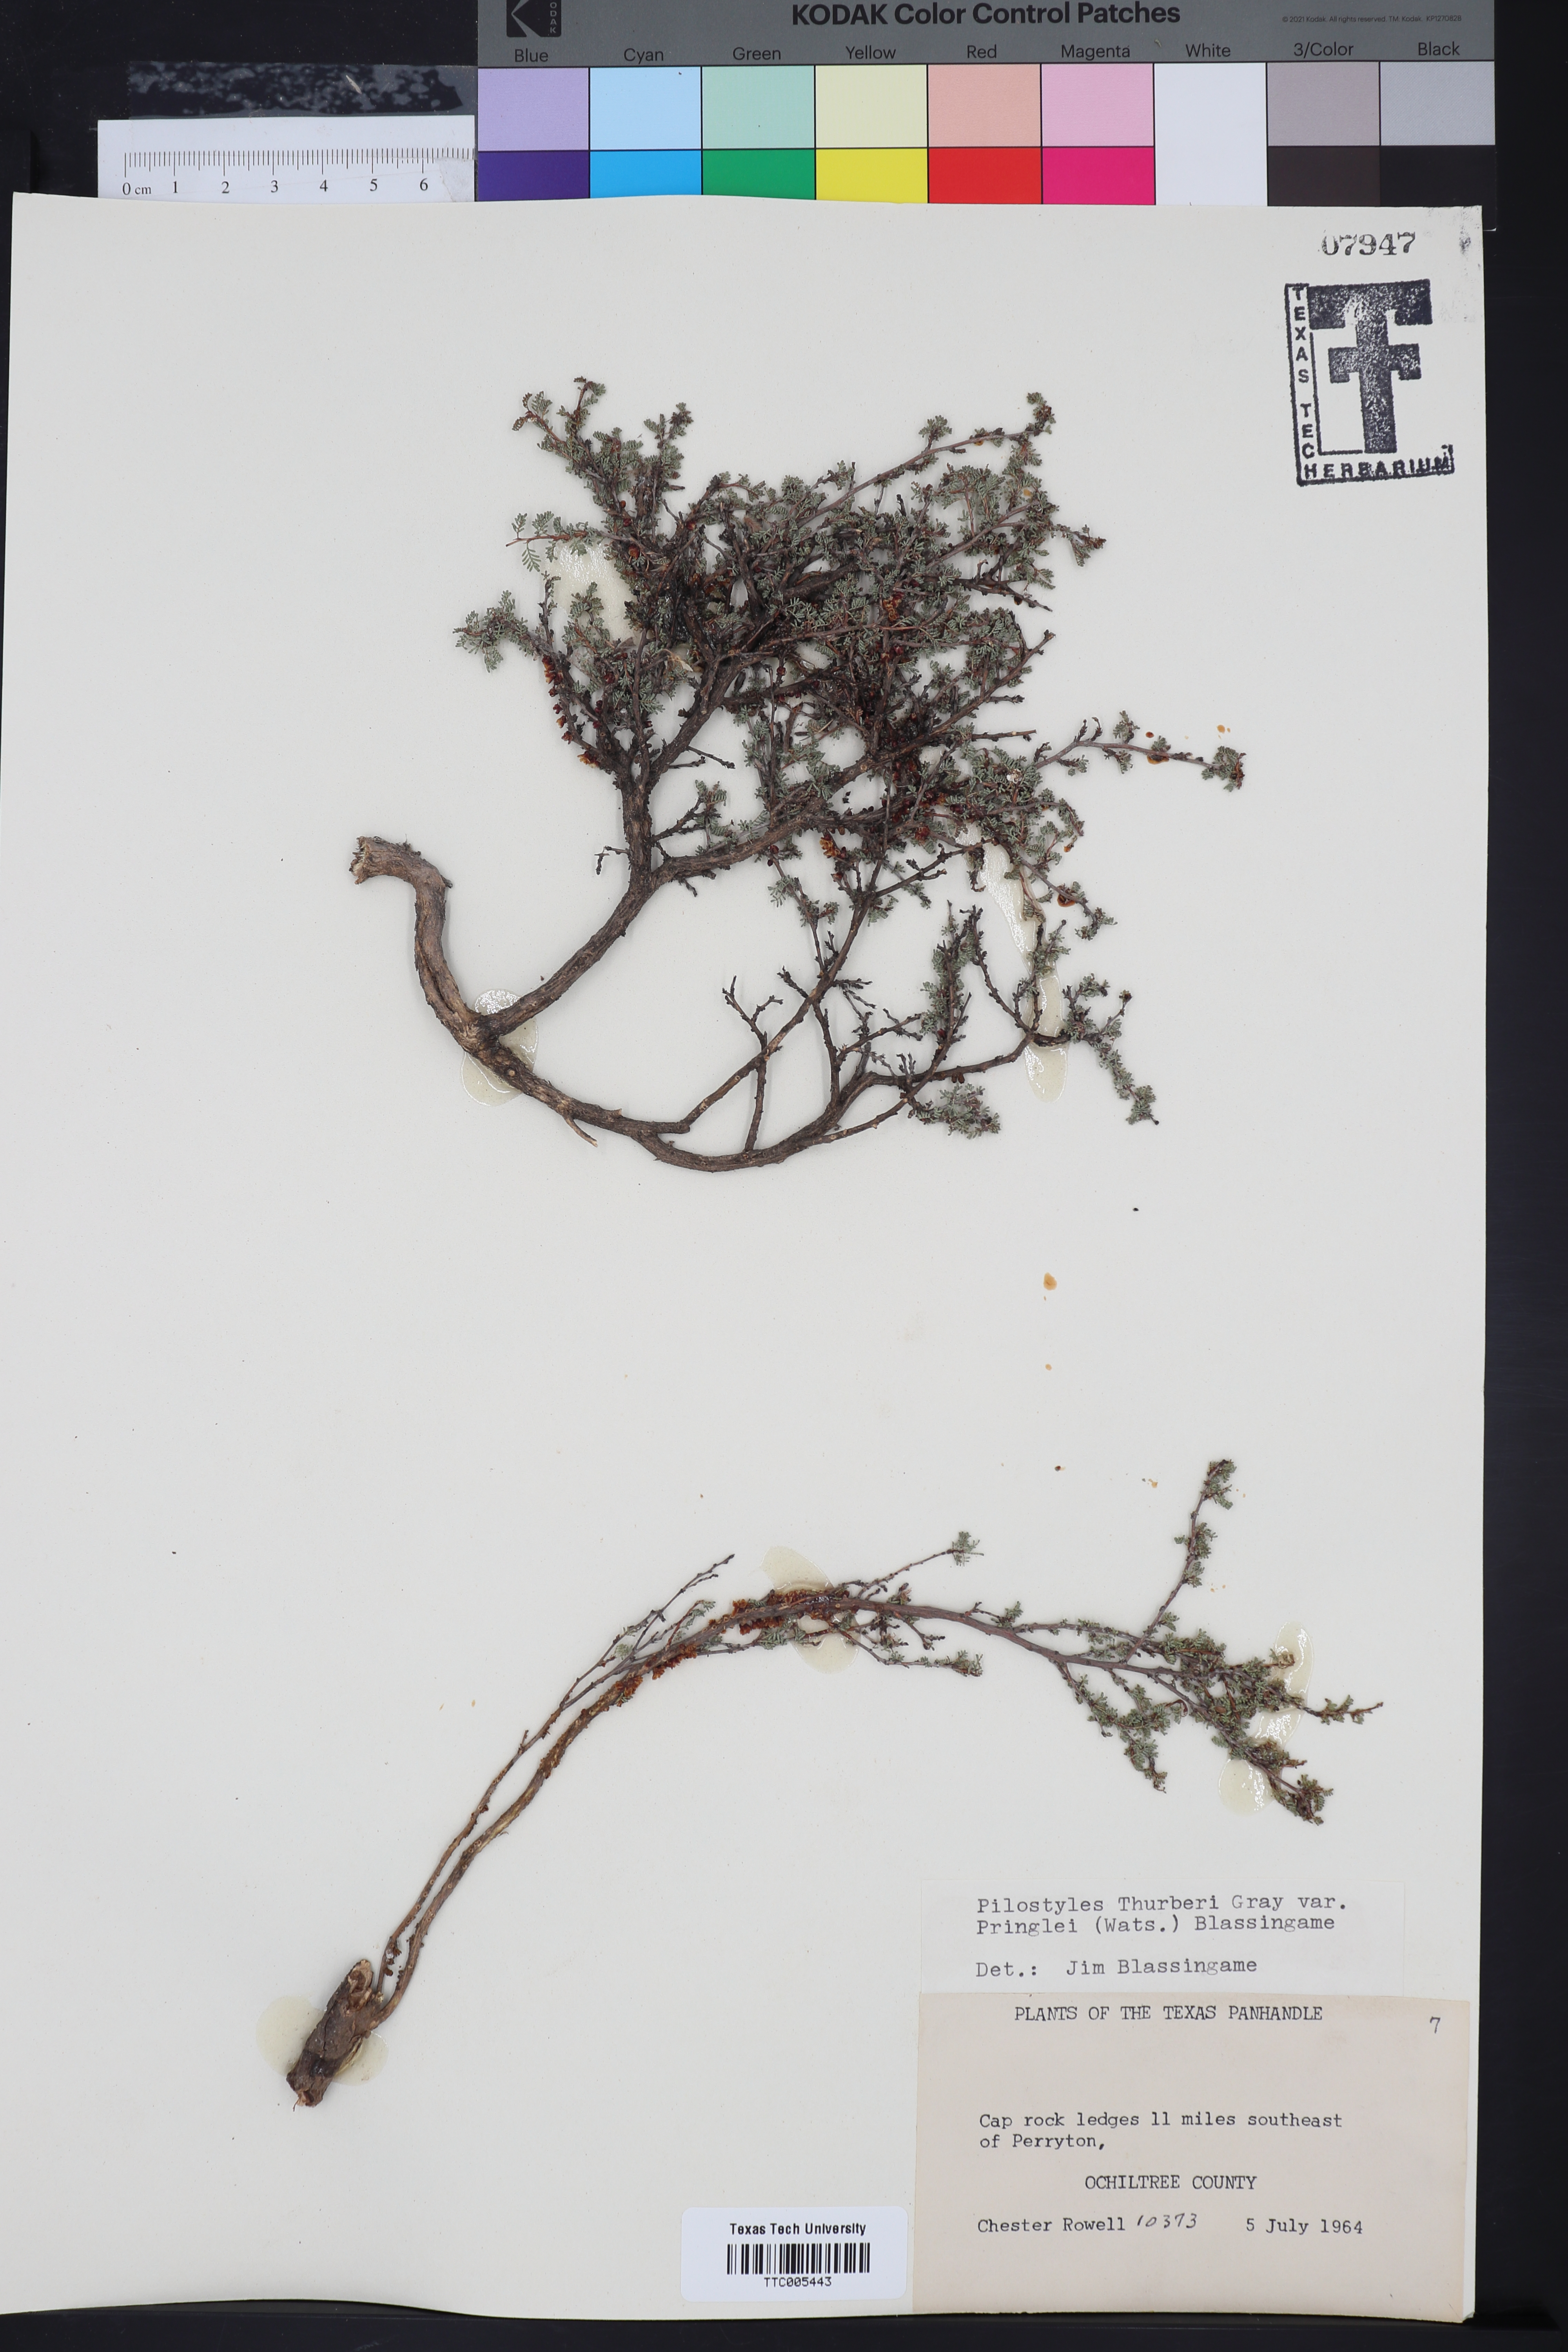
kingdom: Plantae
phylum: Tracheophyta
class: Magnoliopsida
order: Cucurbitales
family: Apodanthaceae
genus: Pilostyles
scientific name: Pilostyles thurberi
